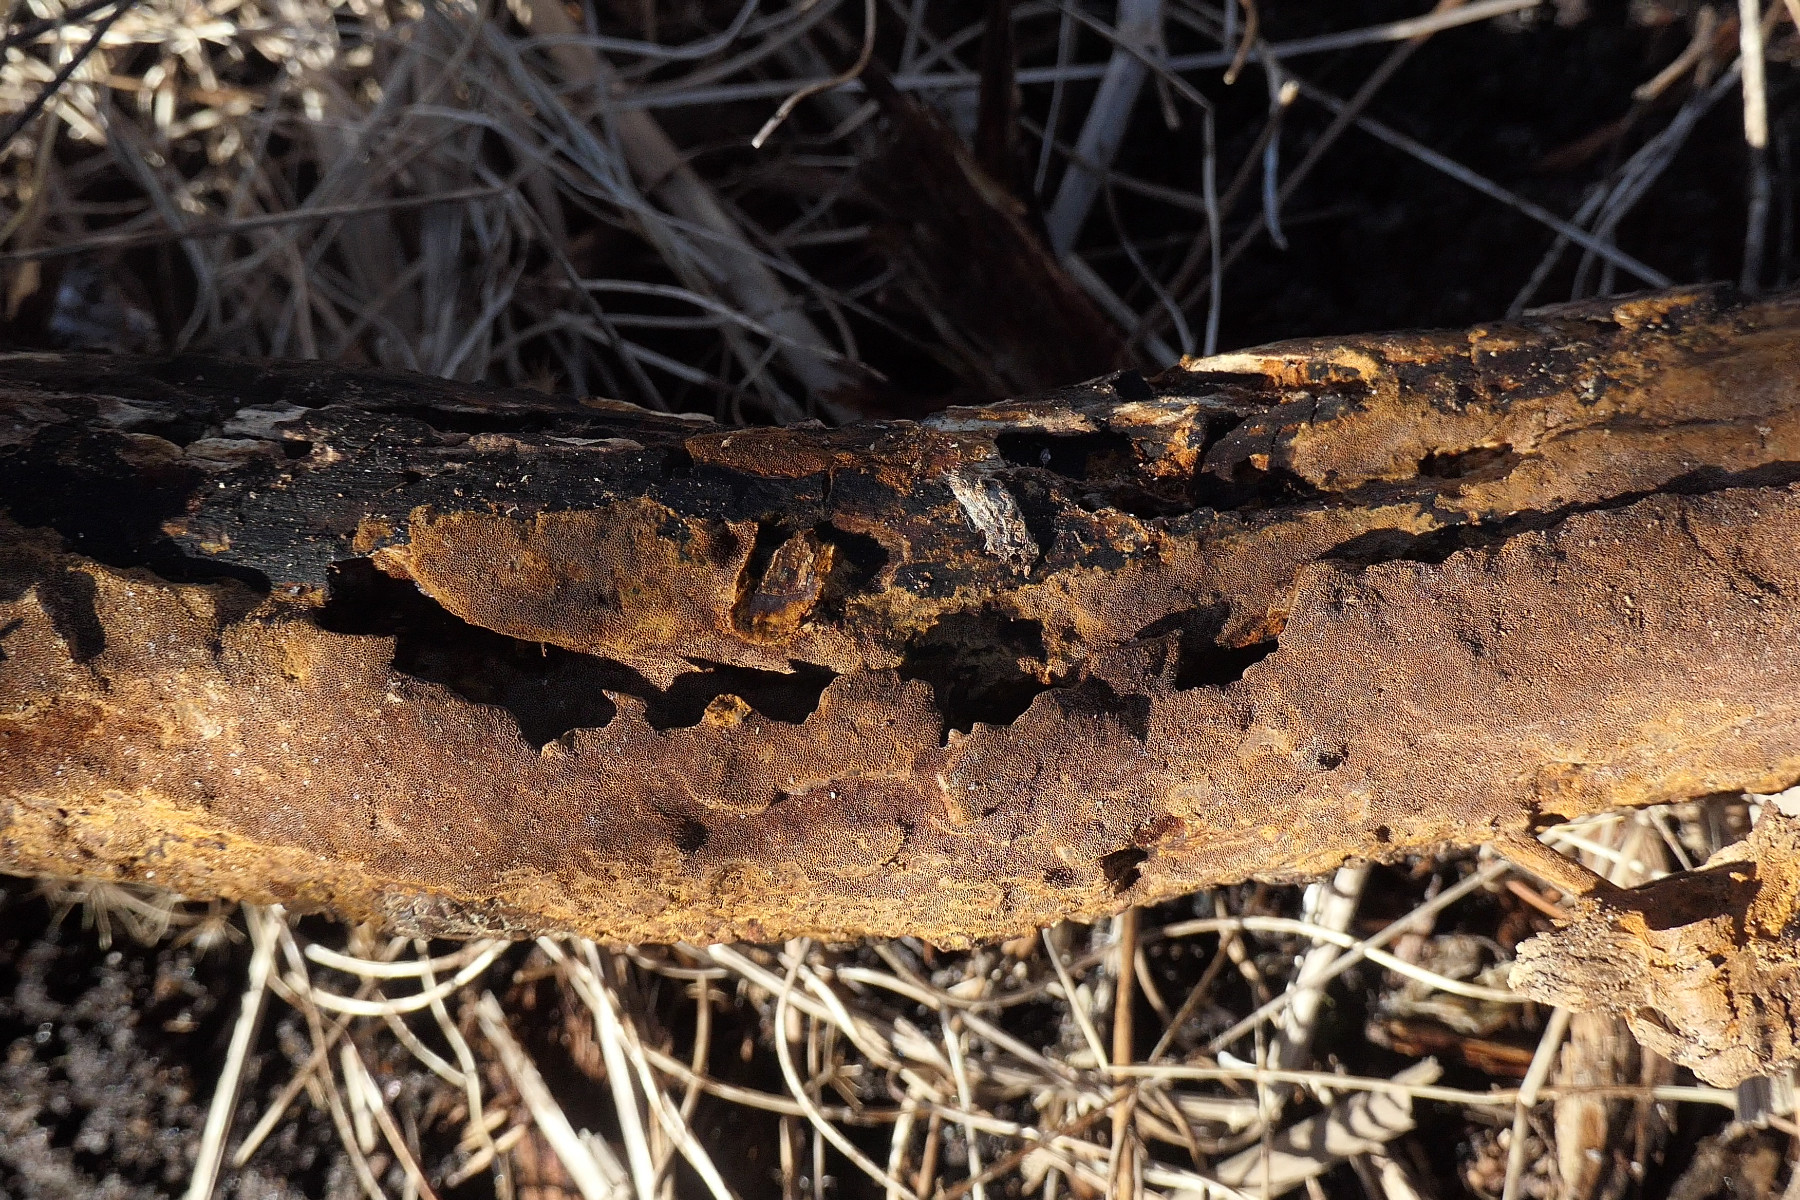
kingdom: Fungi
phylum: Basidiomycota
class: Agaricomycetes
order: Hymenochaetales
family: Hymenochaetaceae
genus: Fuscoporia
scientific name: Fuscoporia ferruginosa
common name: rustbrun ildporesvamp
